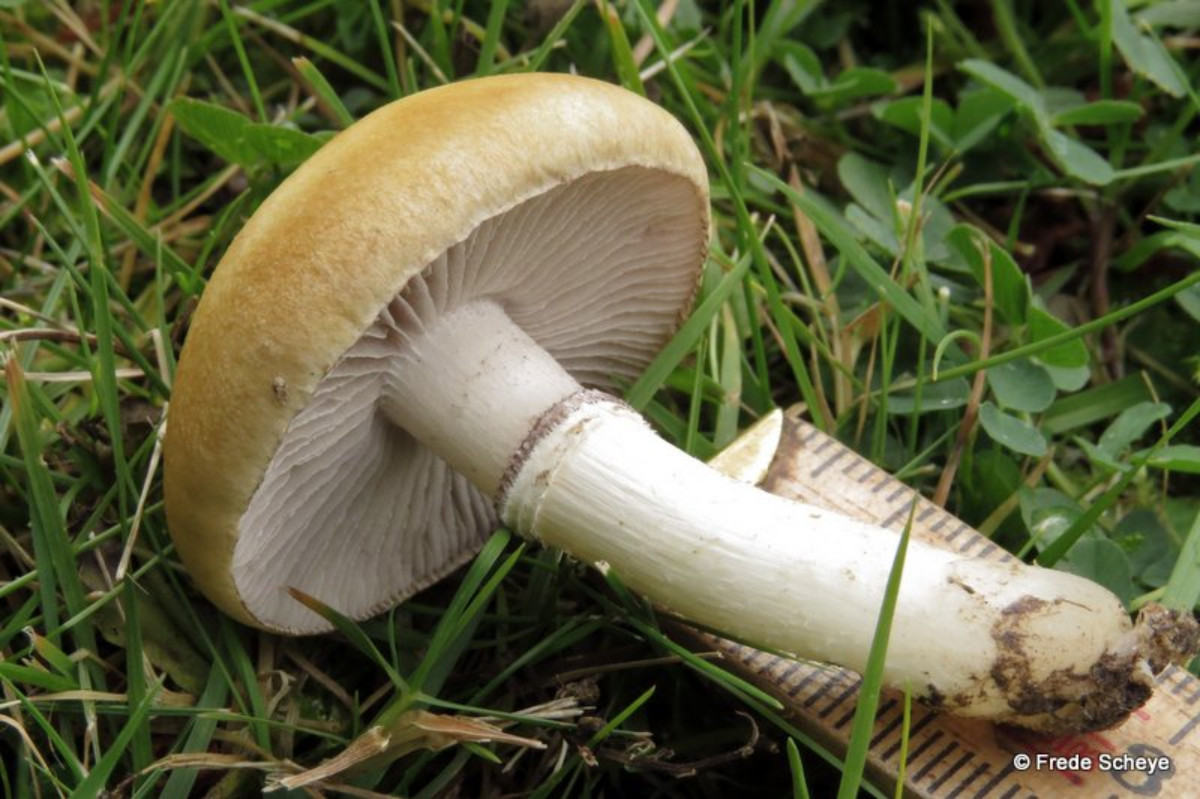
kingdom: Fungi
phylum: Basidiomycota
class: Agaricomycetes
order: Agaricales
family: Hymenogastraceae
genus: Psilocybe
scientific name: Psilocybe coronilla
